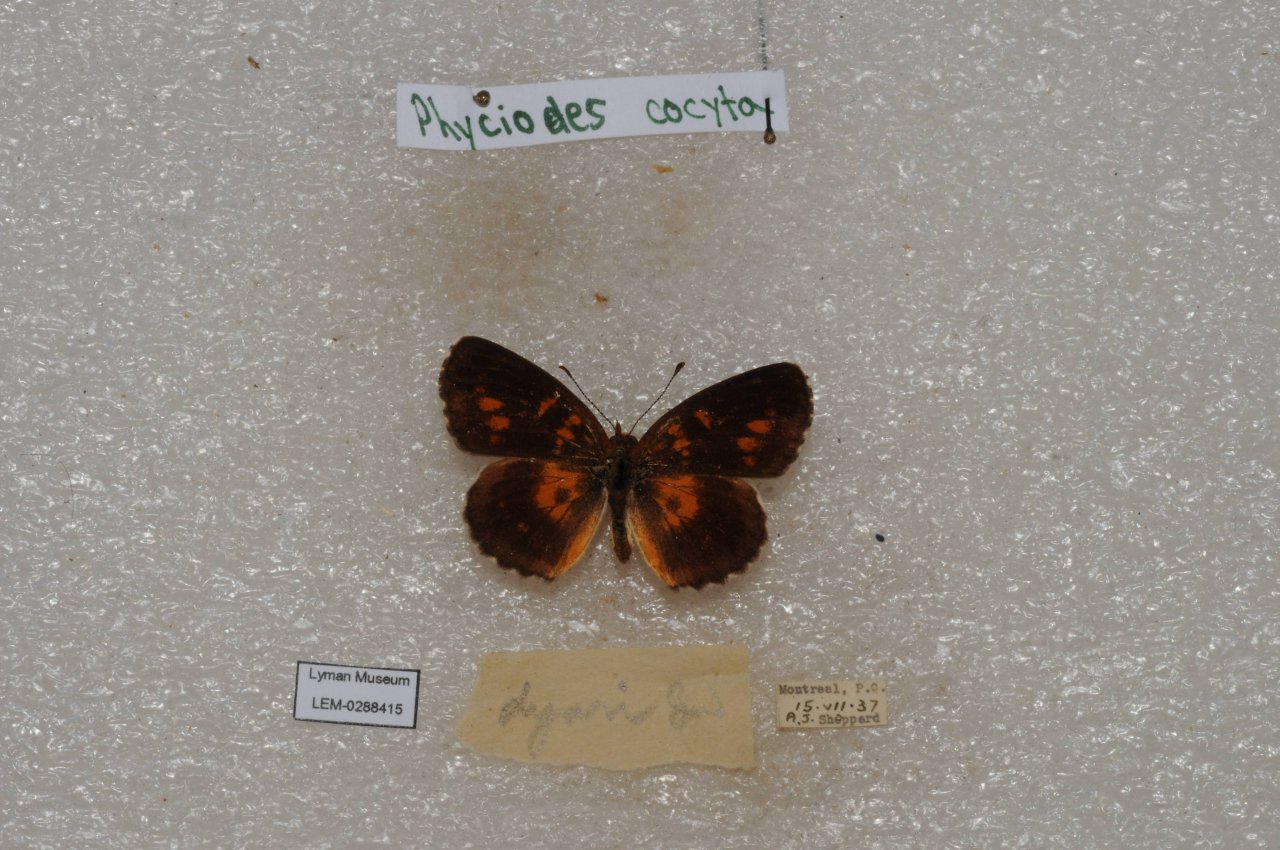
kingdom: Animalia
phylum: Arthropoda
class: Insecta
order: Lepidoptera
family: Nymphalidae
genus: Phyciodes
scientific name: Phyciodes tharos
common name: Northern Crescent
